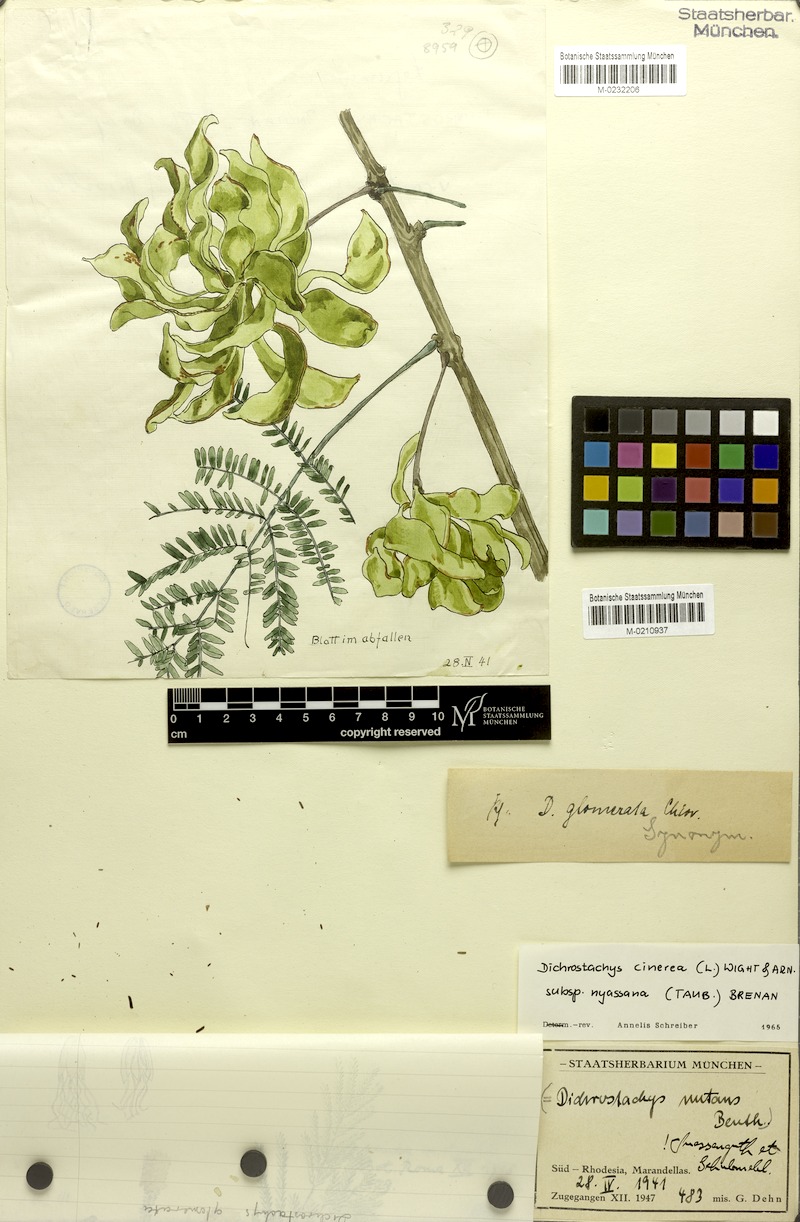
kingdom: Plantae
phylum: Tracheophyta
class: Magnoliopsida
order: Fabales
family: Fabaceae
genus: Dichrostachys
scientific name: Dichrostachys cinerea
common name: Sicklebush
